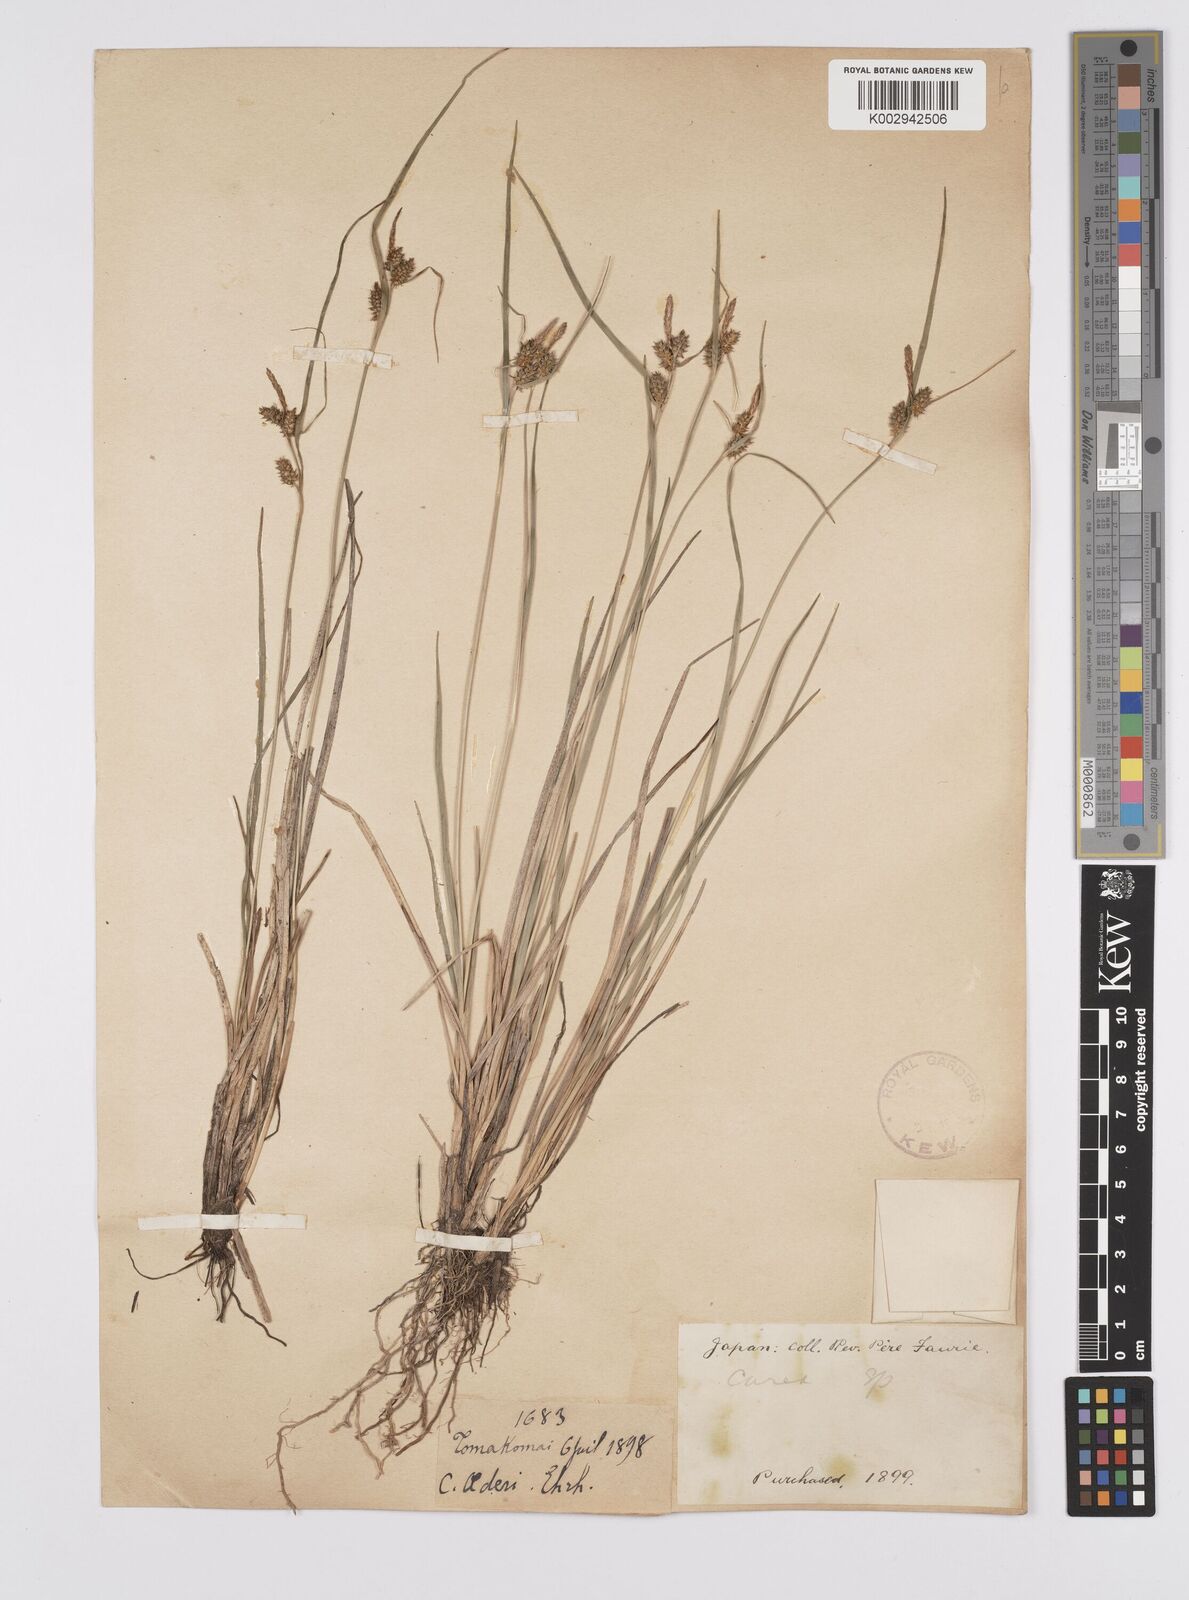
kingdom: Plantae
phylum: Tracheophyta
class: Liliopsida
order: Poales
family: Cyperaceae
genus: Carex
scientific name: Carex oederi
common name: Common & small-fruited yellow-sedge
